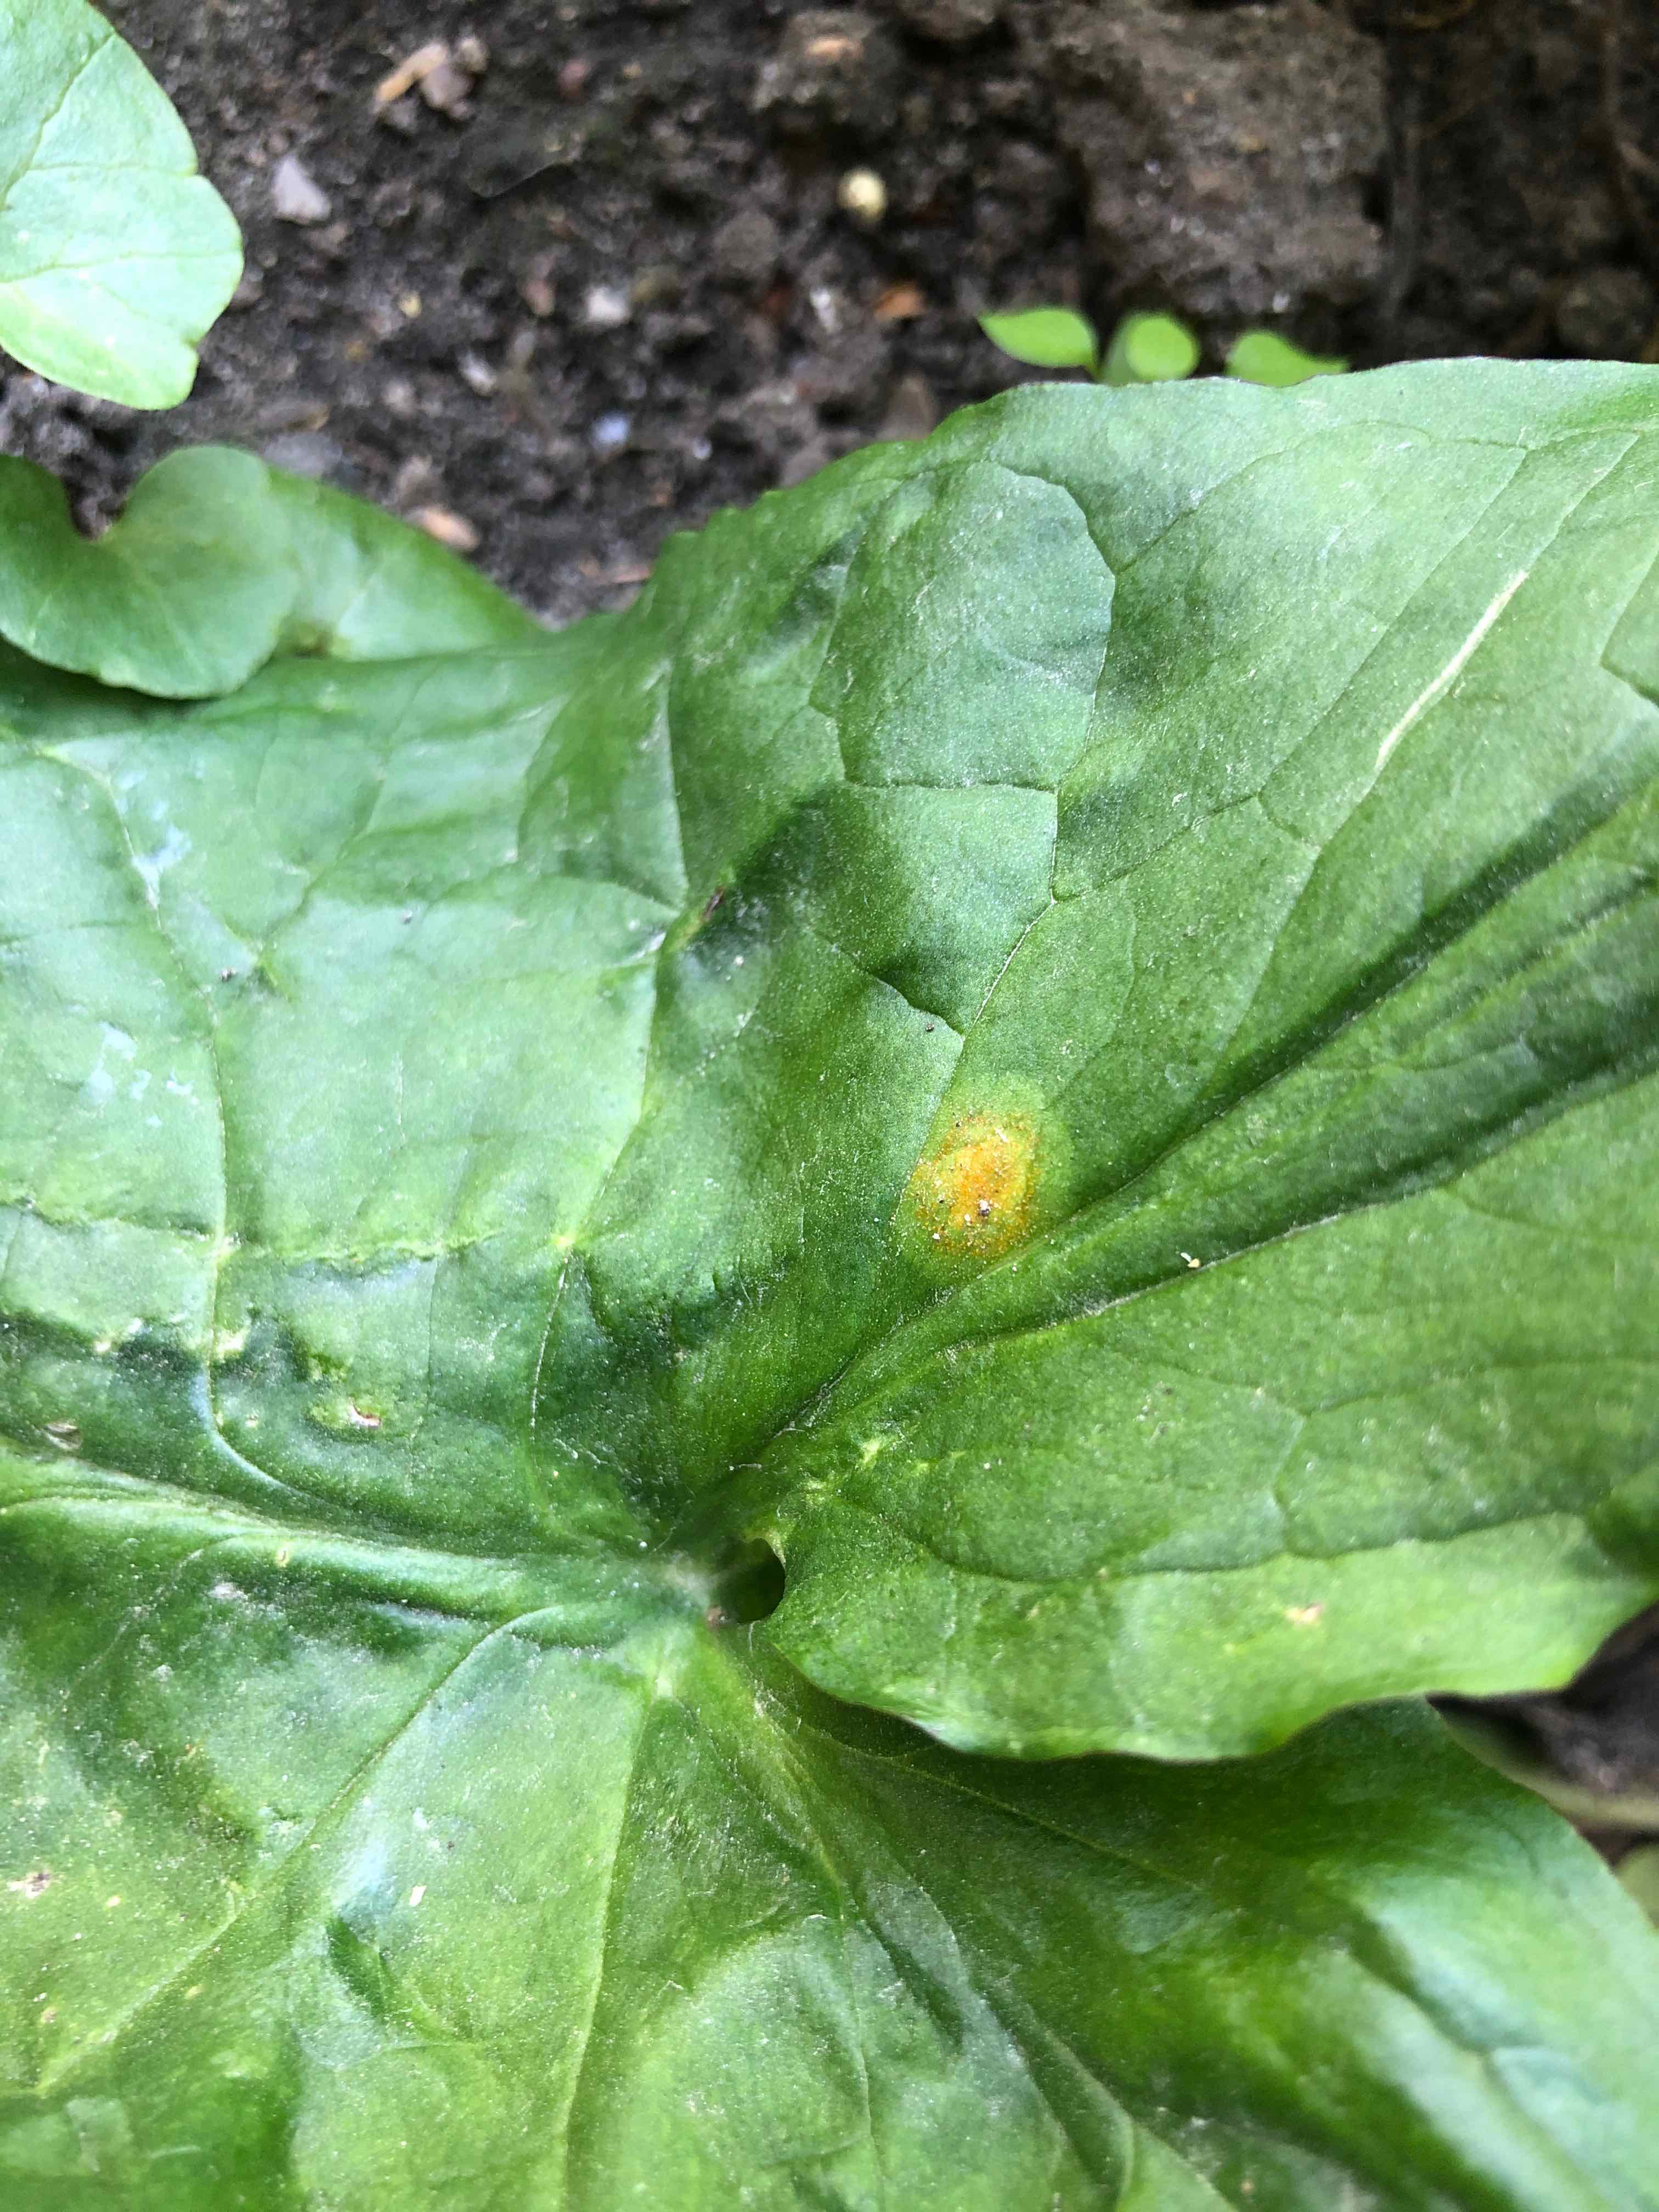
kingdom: Fungi
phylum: Basidiomycota
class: Pucciniomycetes
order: Pucciniales
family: Pucciniaceae
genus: Puccinia
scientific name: Puccinia sessilis
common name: Arum rust
